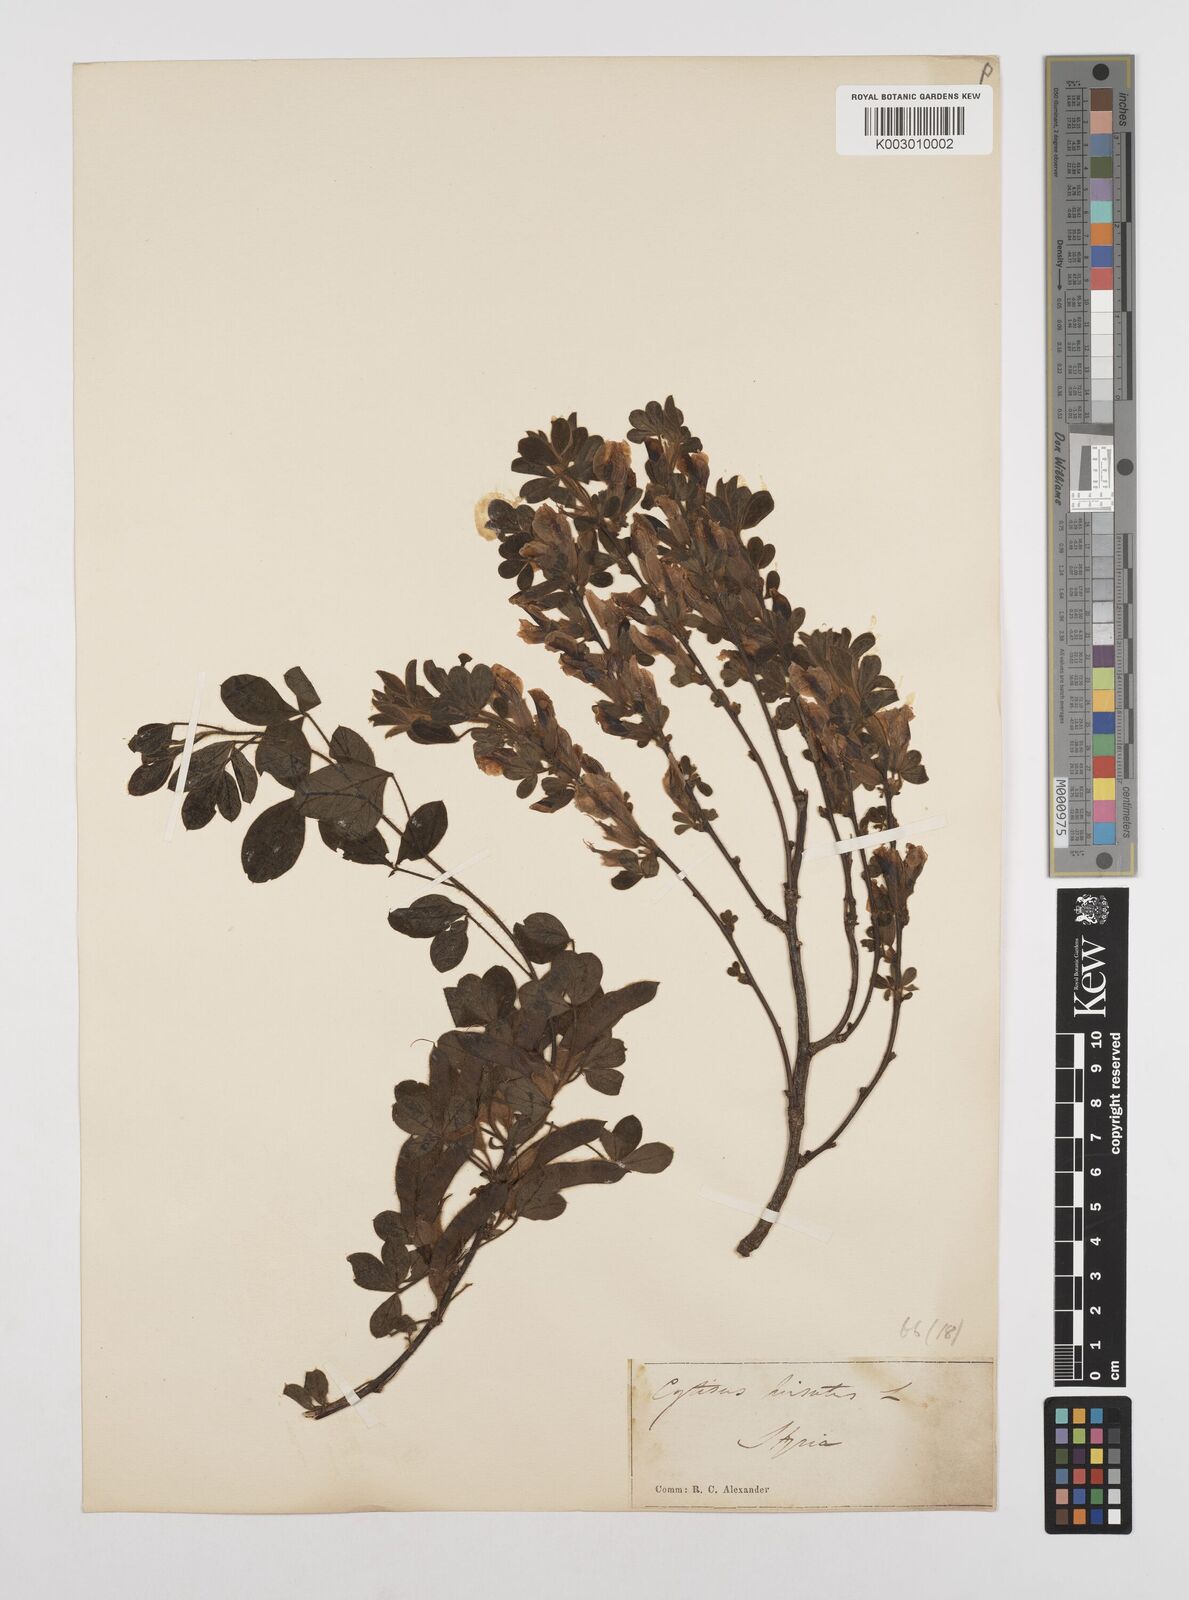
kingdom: Plantae
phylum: Tracheophyta
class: Magnoliopsida
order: Fabales
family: Fabaceae
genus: Chamaecytisus
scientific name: Chamaecytisus hirsutus
